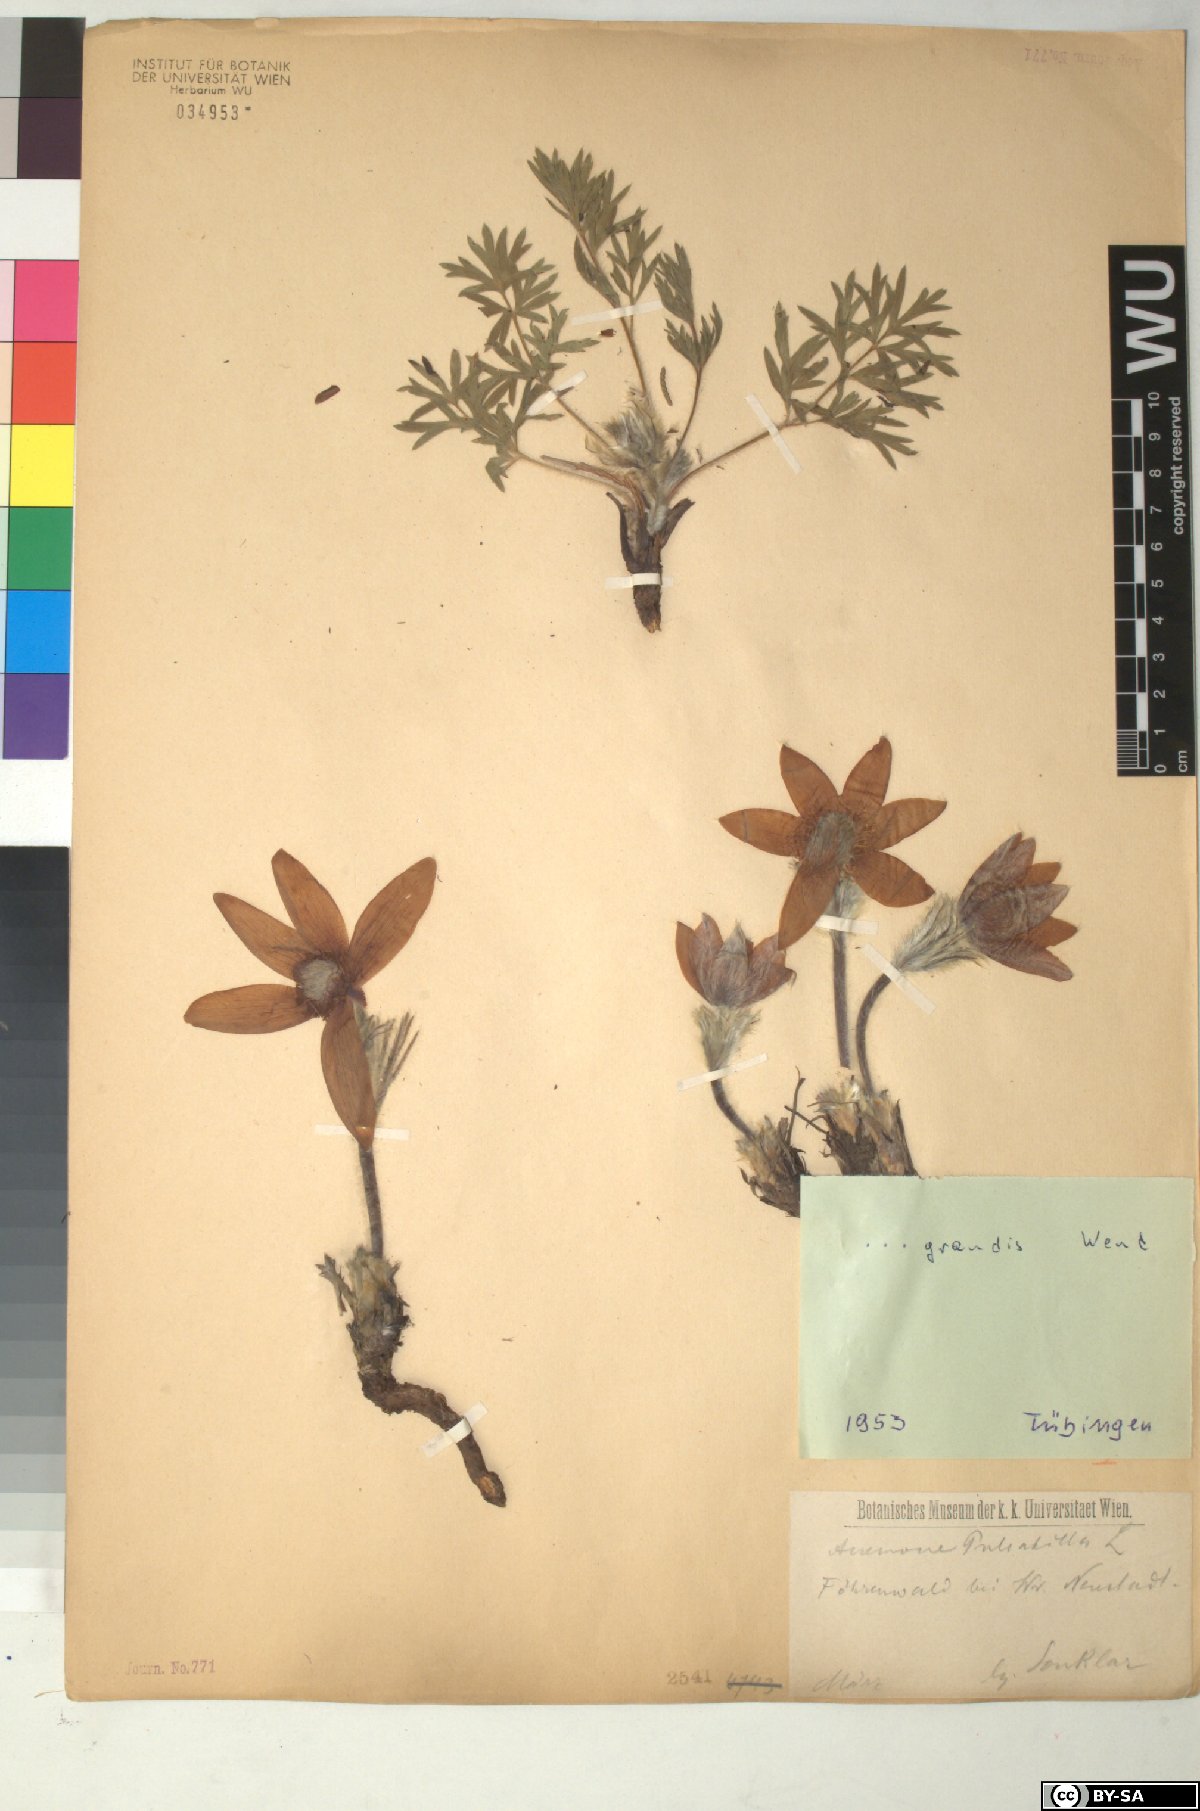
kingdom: Plantae
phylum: Tracheophyta
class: Magnoliopsida
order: Ranunculales
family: Ranunculaceae
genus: Pulsatilla
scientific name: Pulsatilla grandis
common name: Greater pasque flower
